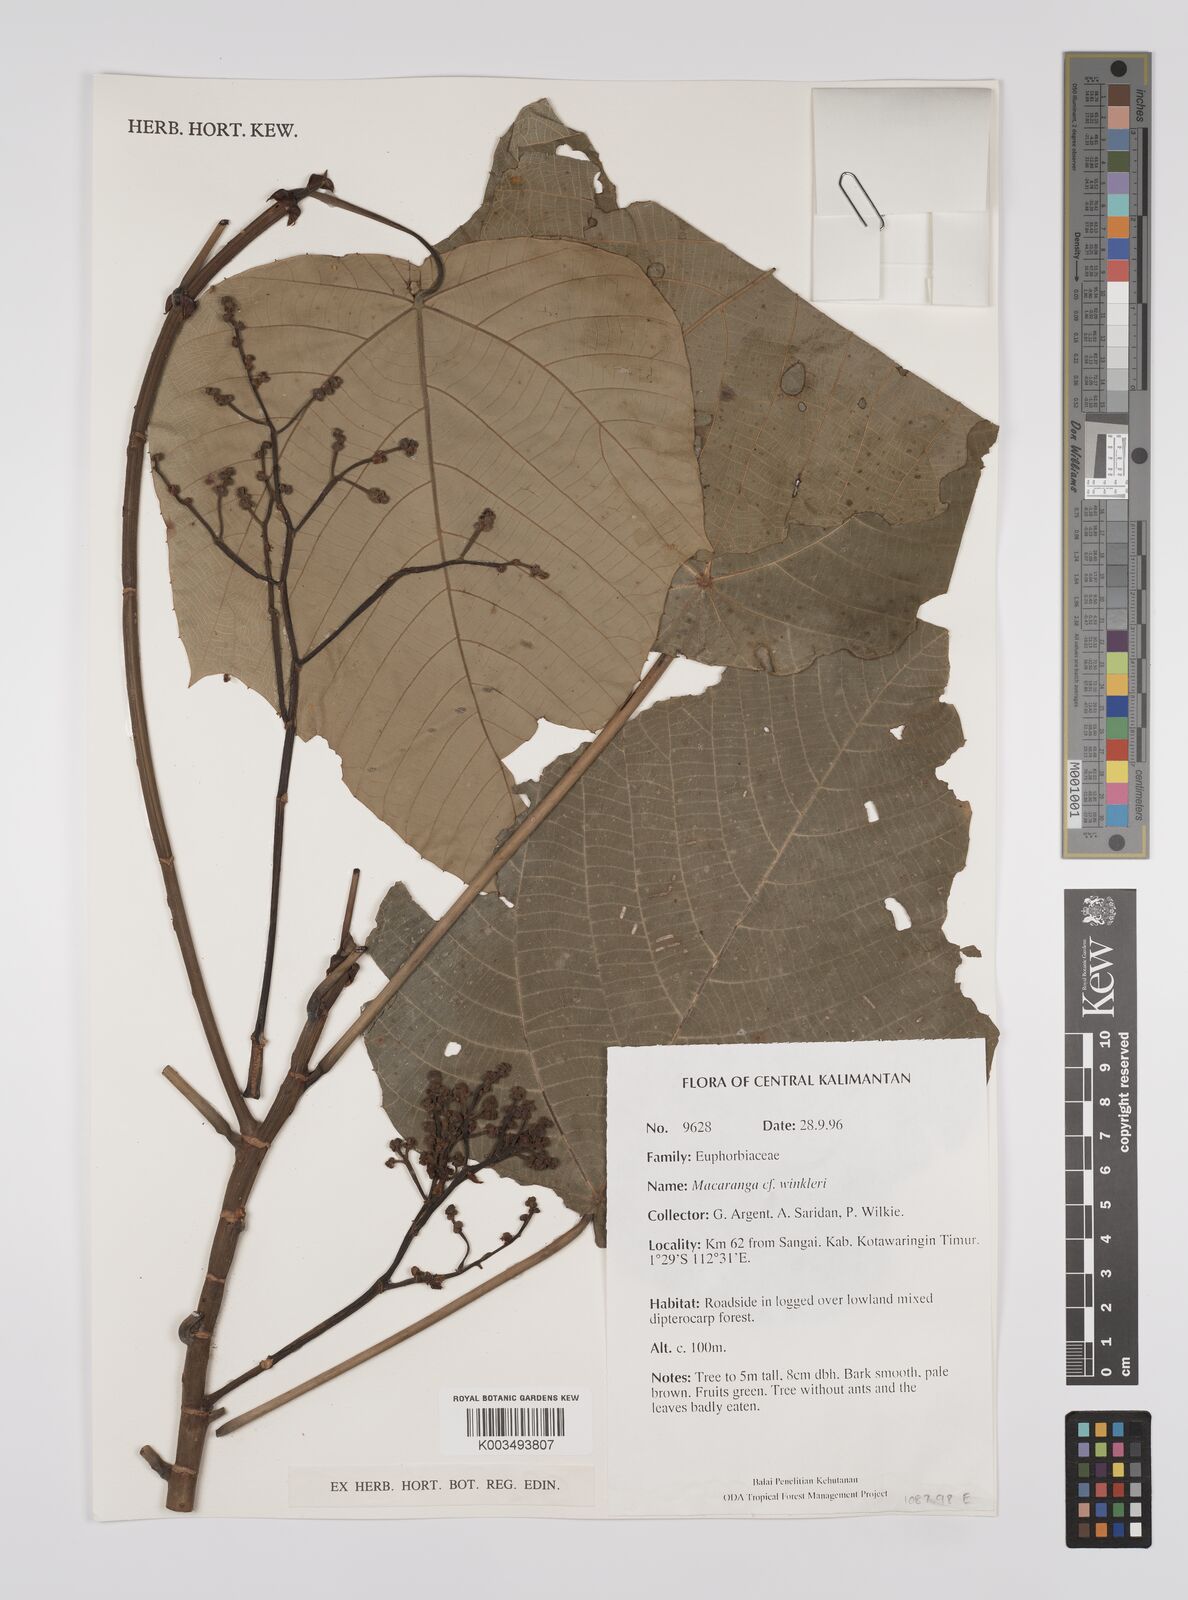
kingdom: Plantae
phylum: Tracheophyta
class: Magnoliopsida
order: Malpighiales
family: Euphorbiaceae
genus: Macaranga
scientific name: Macaranga winkleri
